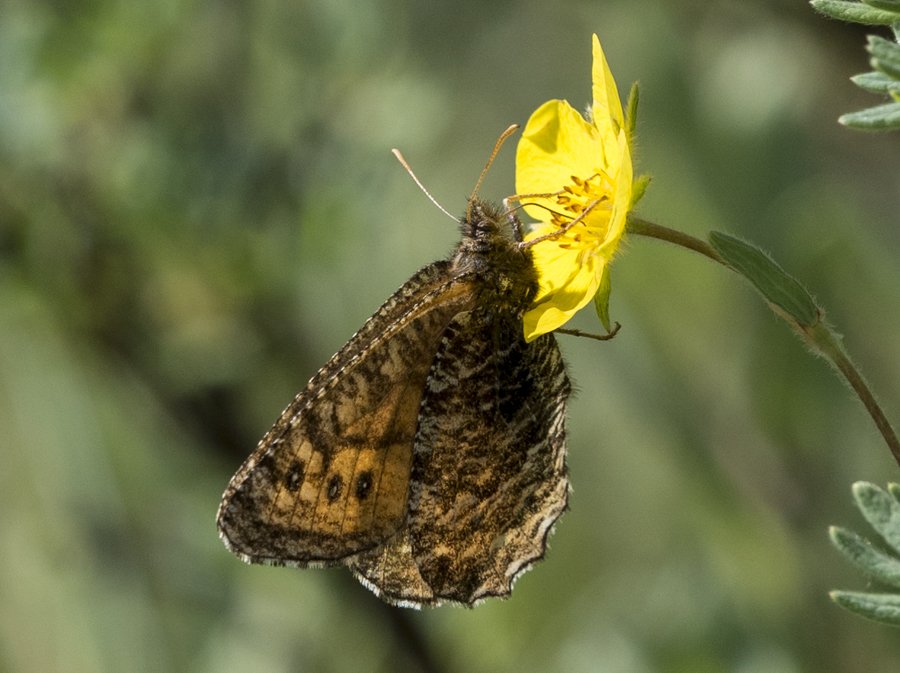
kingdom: Animalia
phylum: Arthropoda
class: Insecta
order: Lepidoptera
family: Nymphalidae
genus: Oeneis
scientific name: Oeneis jutta
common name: Jutta Arctic
